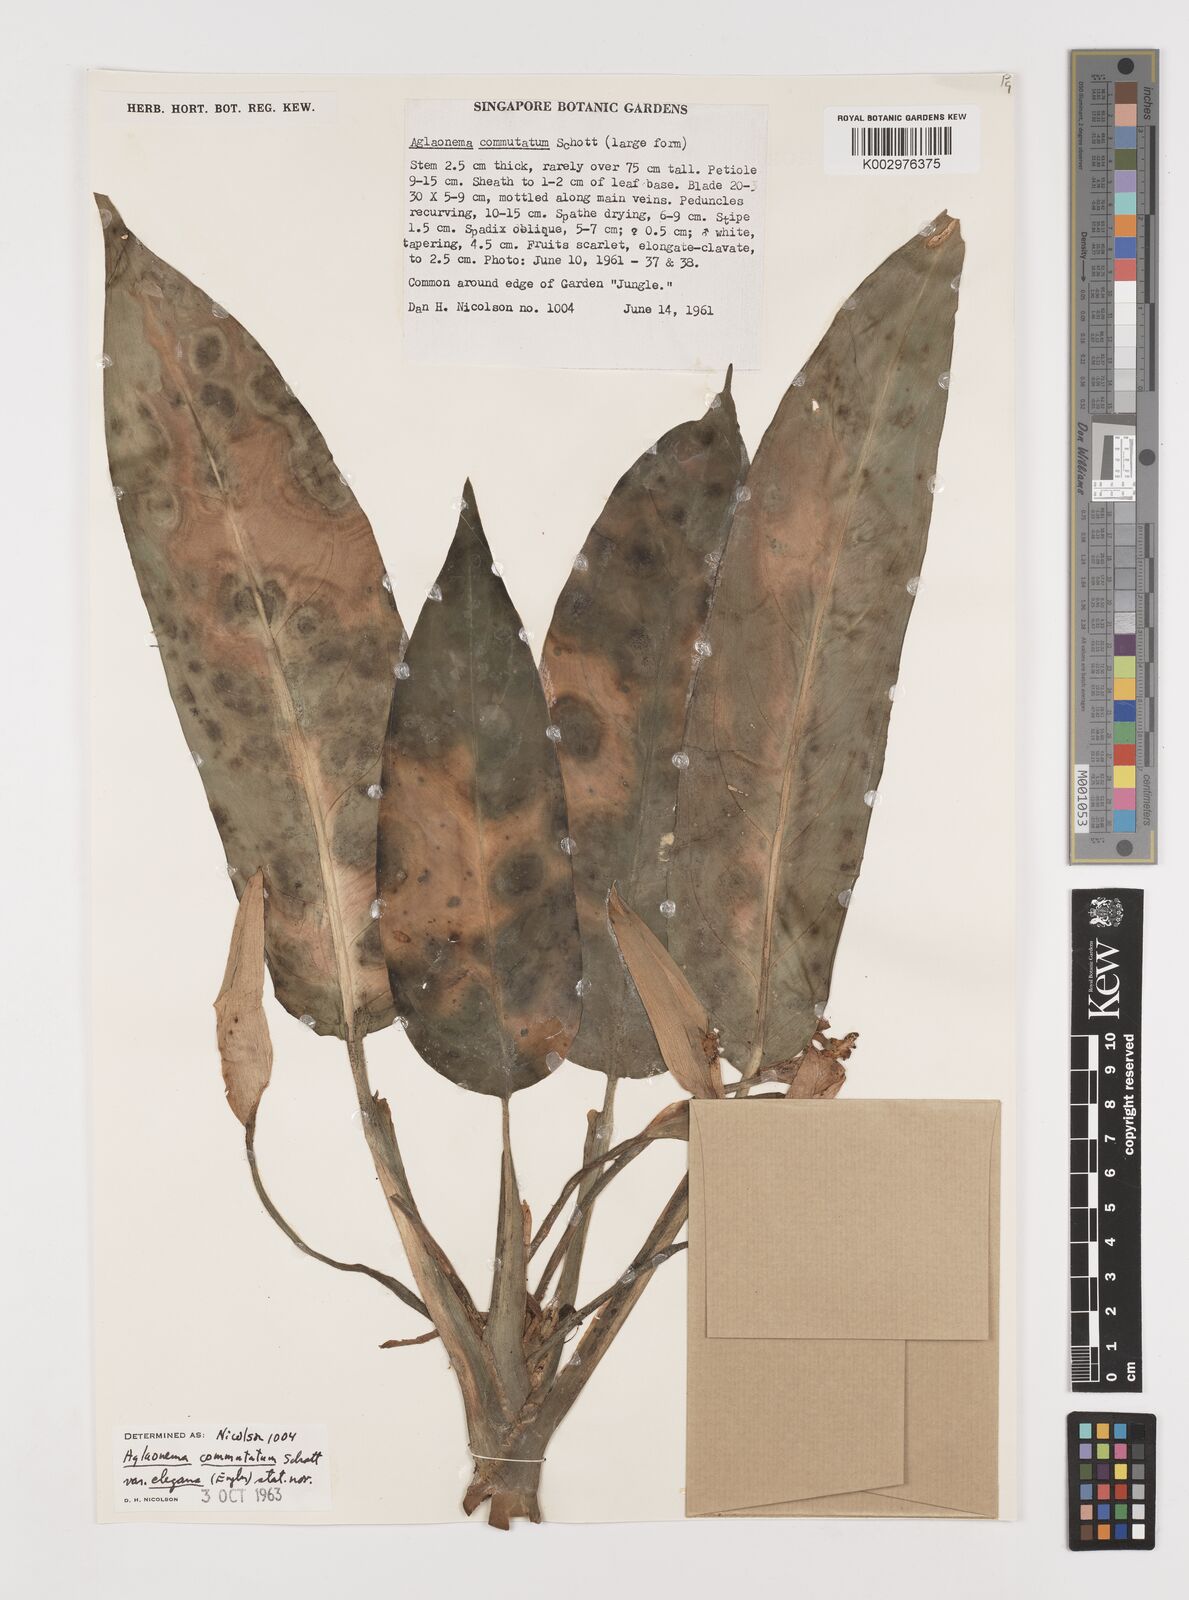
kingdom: Plantae
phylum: Tracheophyta
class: Liliopsida
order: Alismatales
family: Araceae
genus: Aglaonema
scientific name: Aglaonema commutatum
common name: Philippine evergreen
